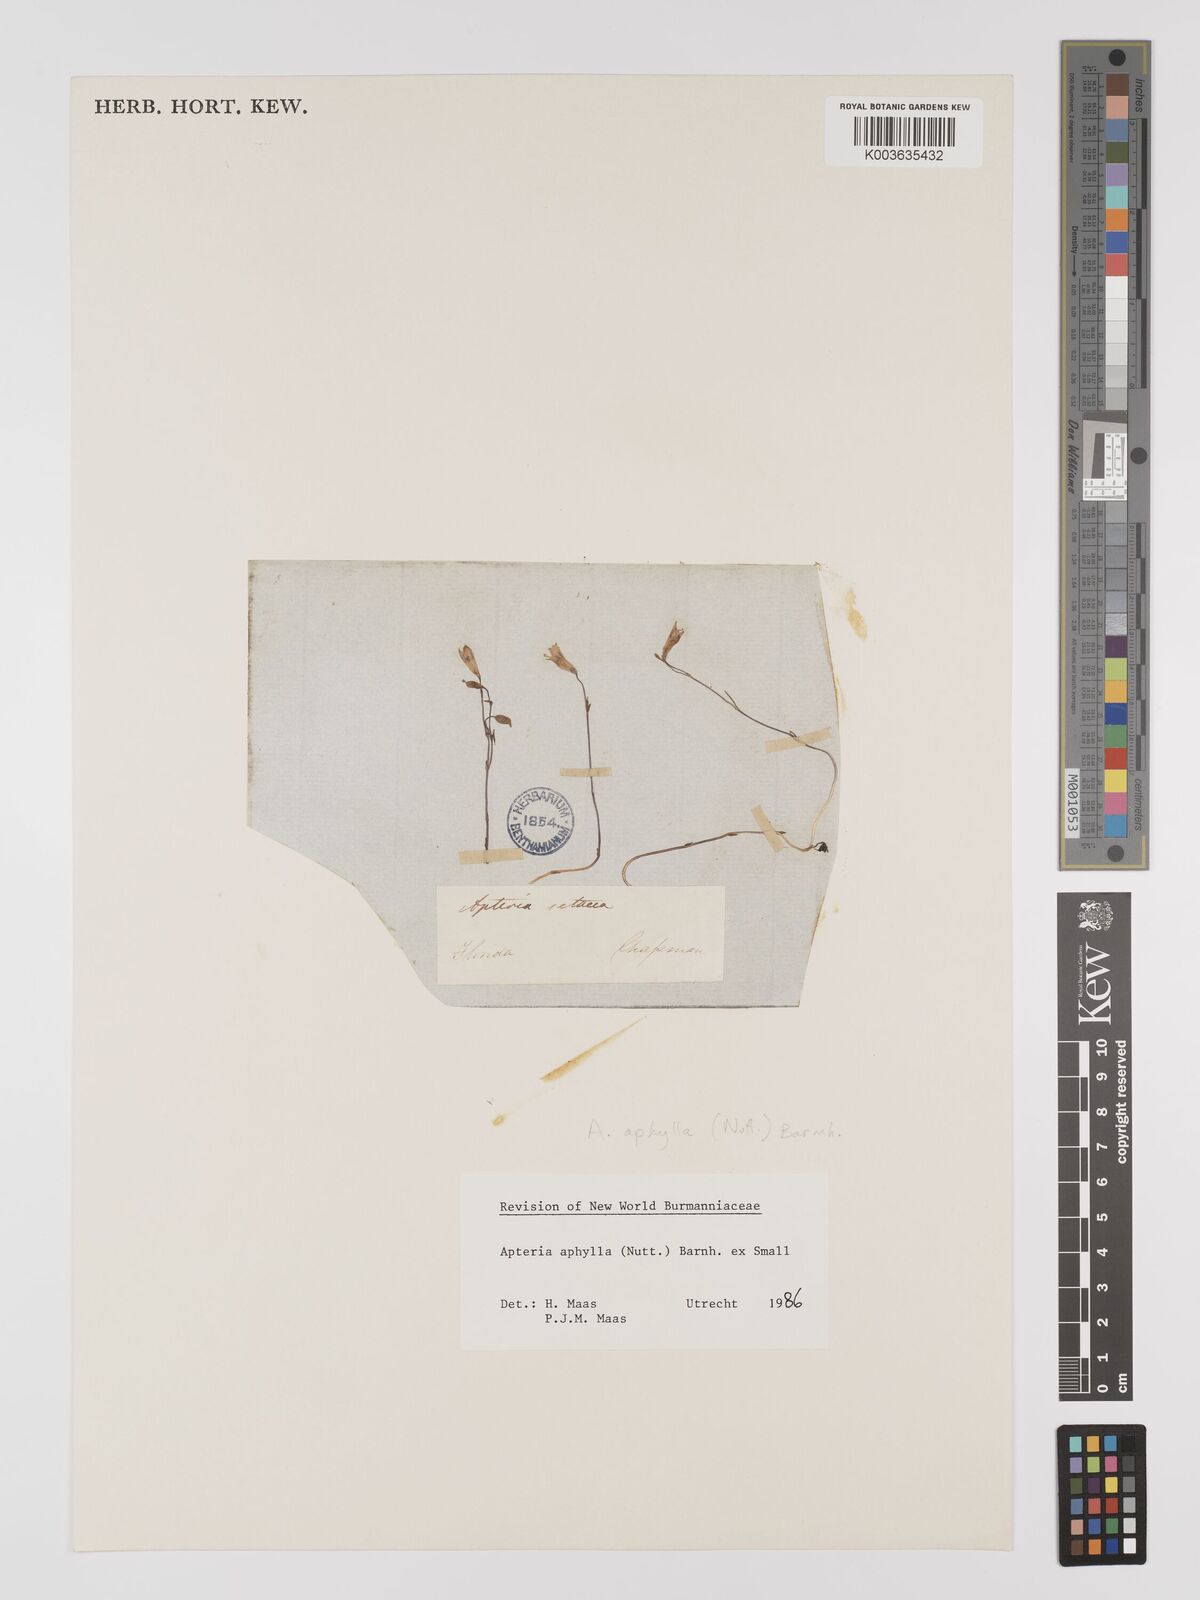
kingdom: Plantae
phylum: Tracheophyta
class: Liliopsida
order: Dioscoreales
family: Burmanniaceae
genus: Apteria
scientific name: Apteria aphylla
